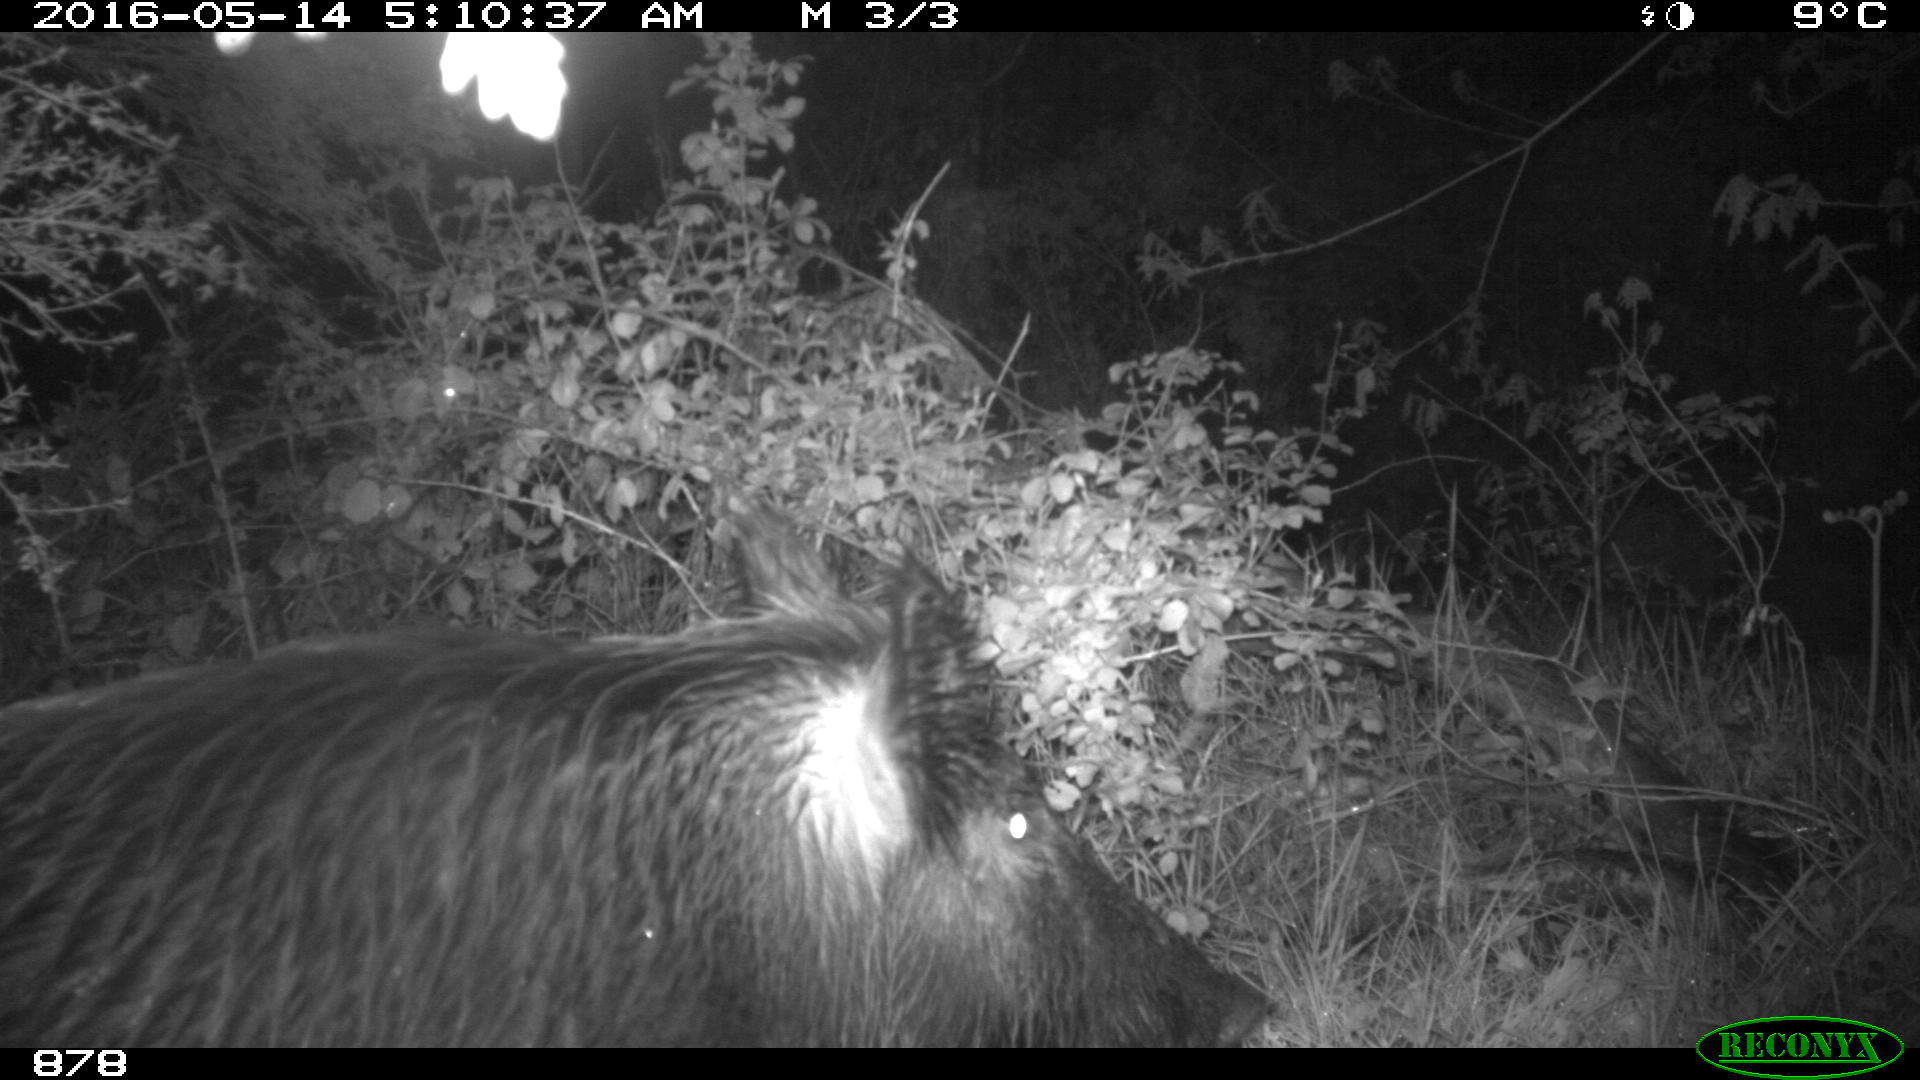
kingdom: Animalia
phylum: Chordata
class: Mammalia
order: Artiodactyla
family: Suidae
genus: Sus
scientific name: Sus scrofa
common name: Wild boar
